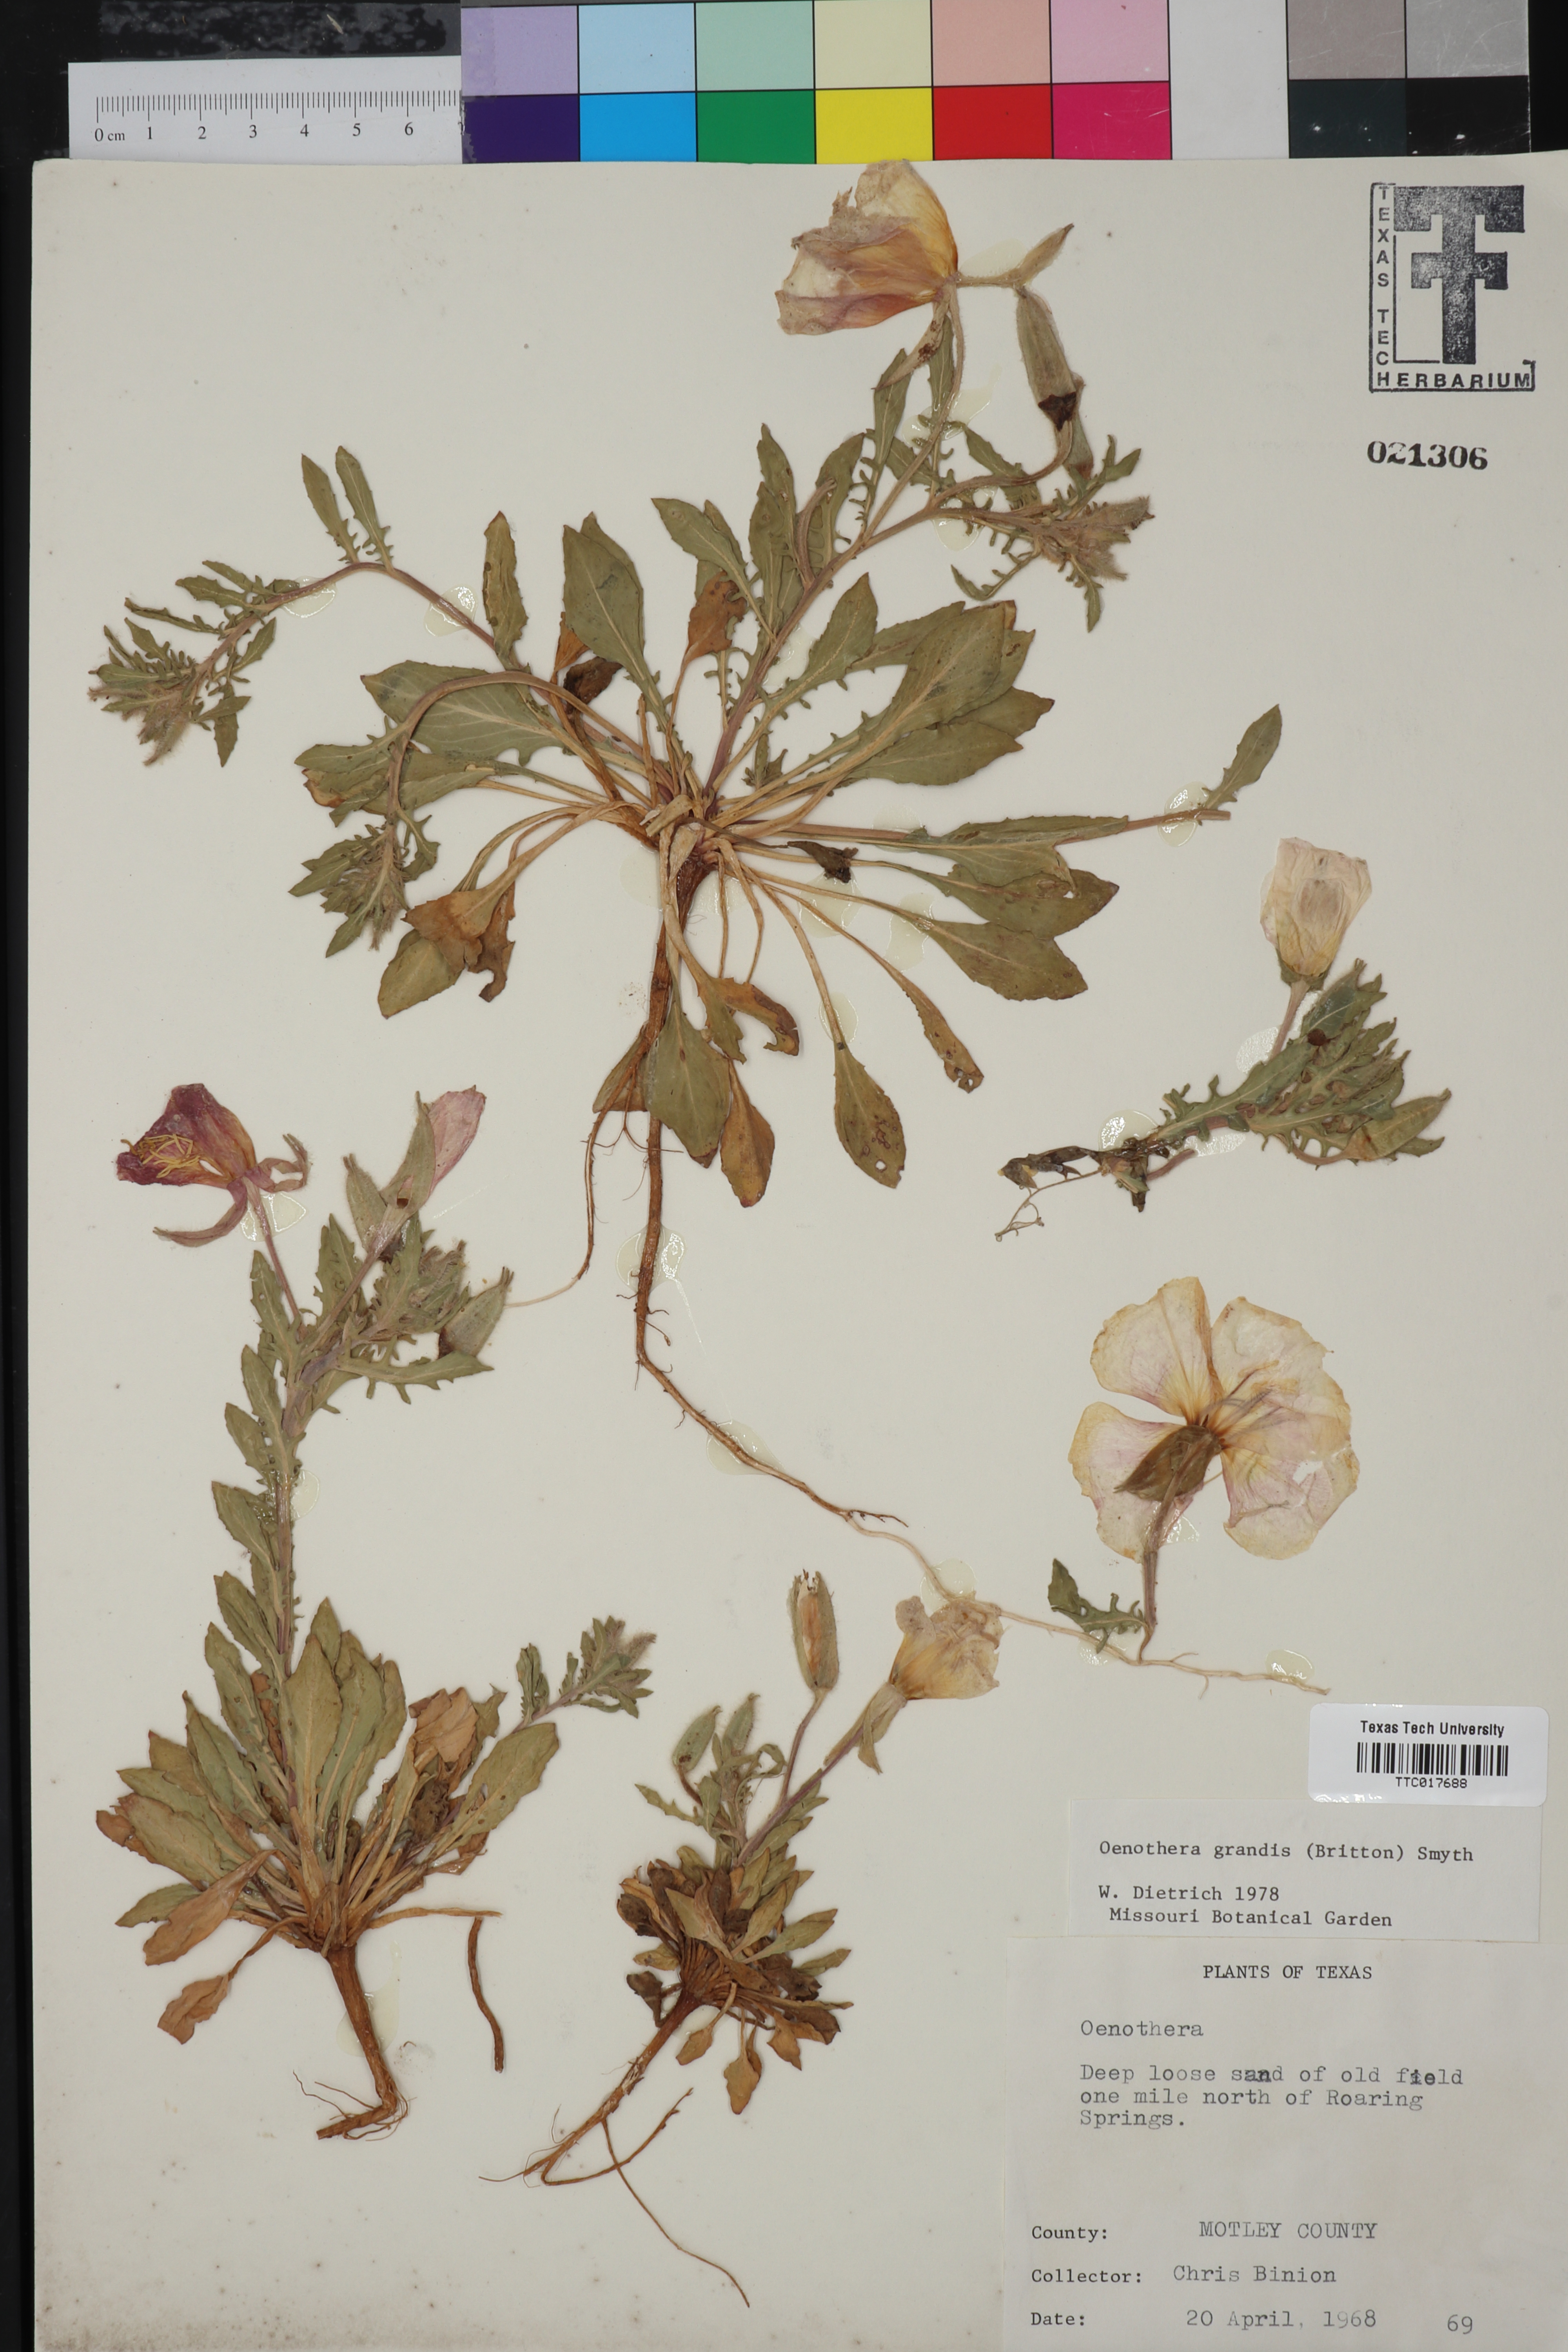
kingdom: Plantae
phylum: Tracheophyta
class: Magnoliopsida
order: Myrtales
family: Onagraceae
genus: Oenothera
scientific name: Oenothera grandis
